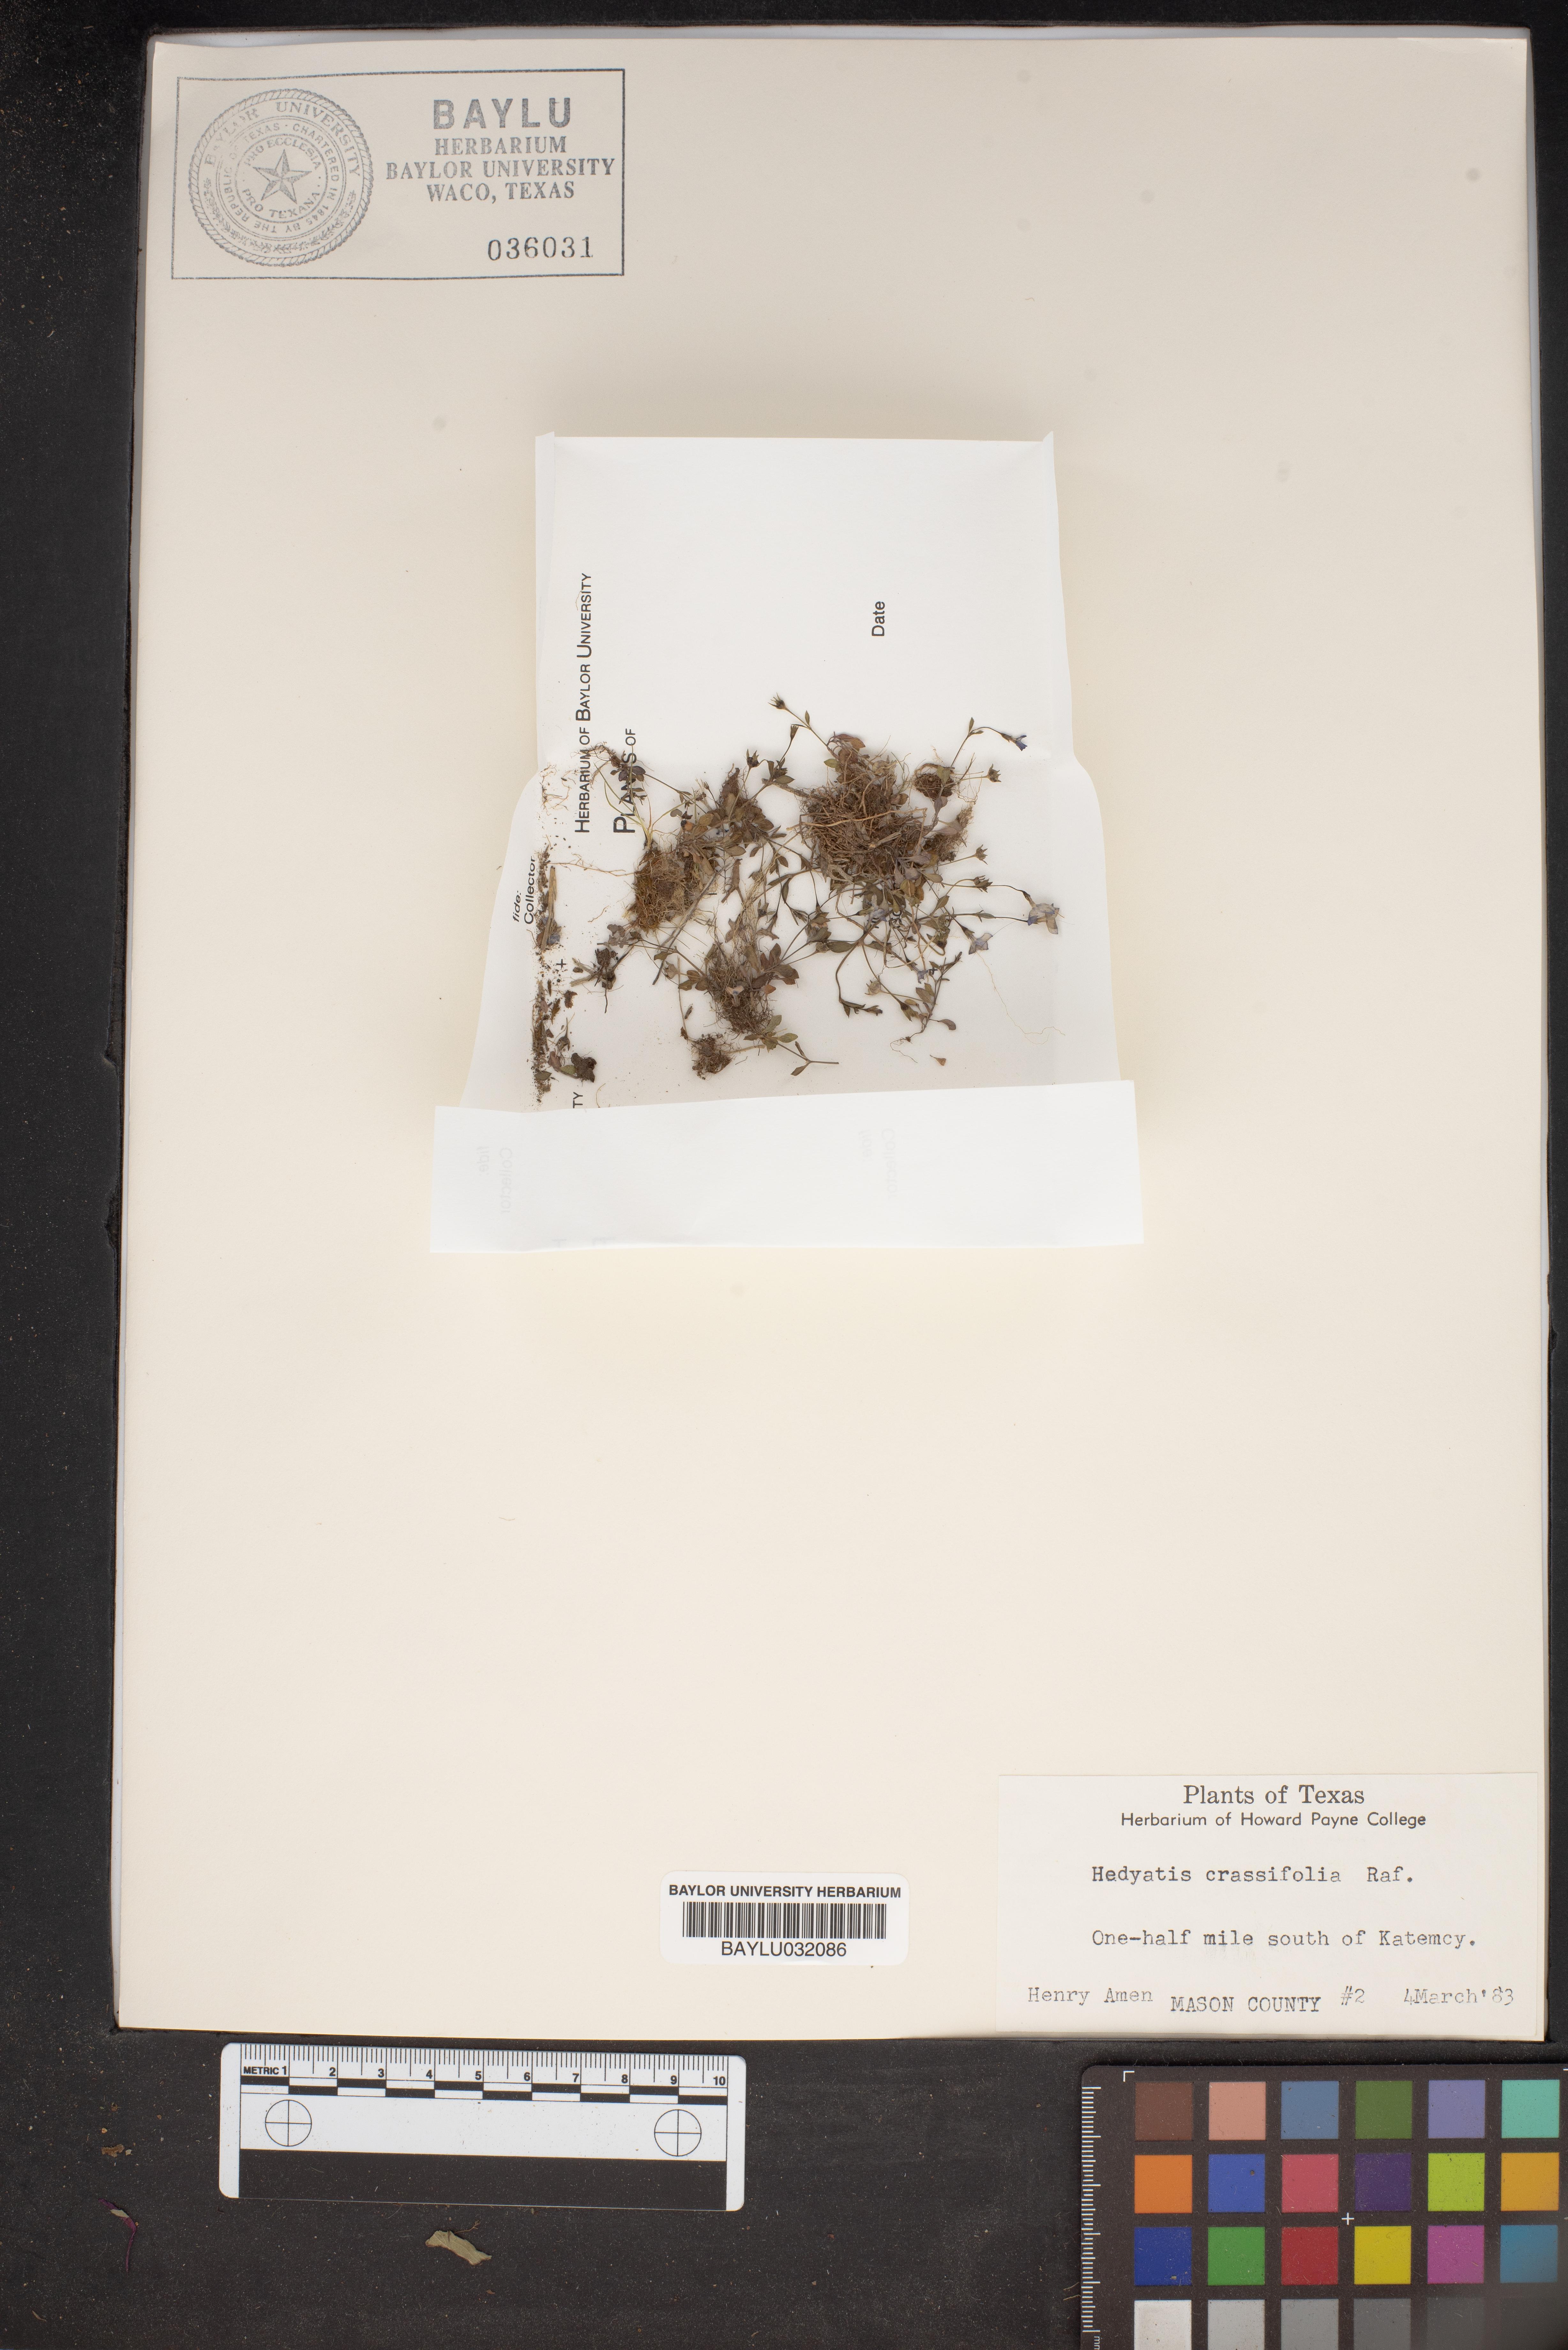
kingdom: Plantae
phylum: Tracheophyta
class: Magnoliopsida
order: Gentianales
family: Rubiaceae
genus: Houstonia
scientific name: Houstonia pusilla
